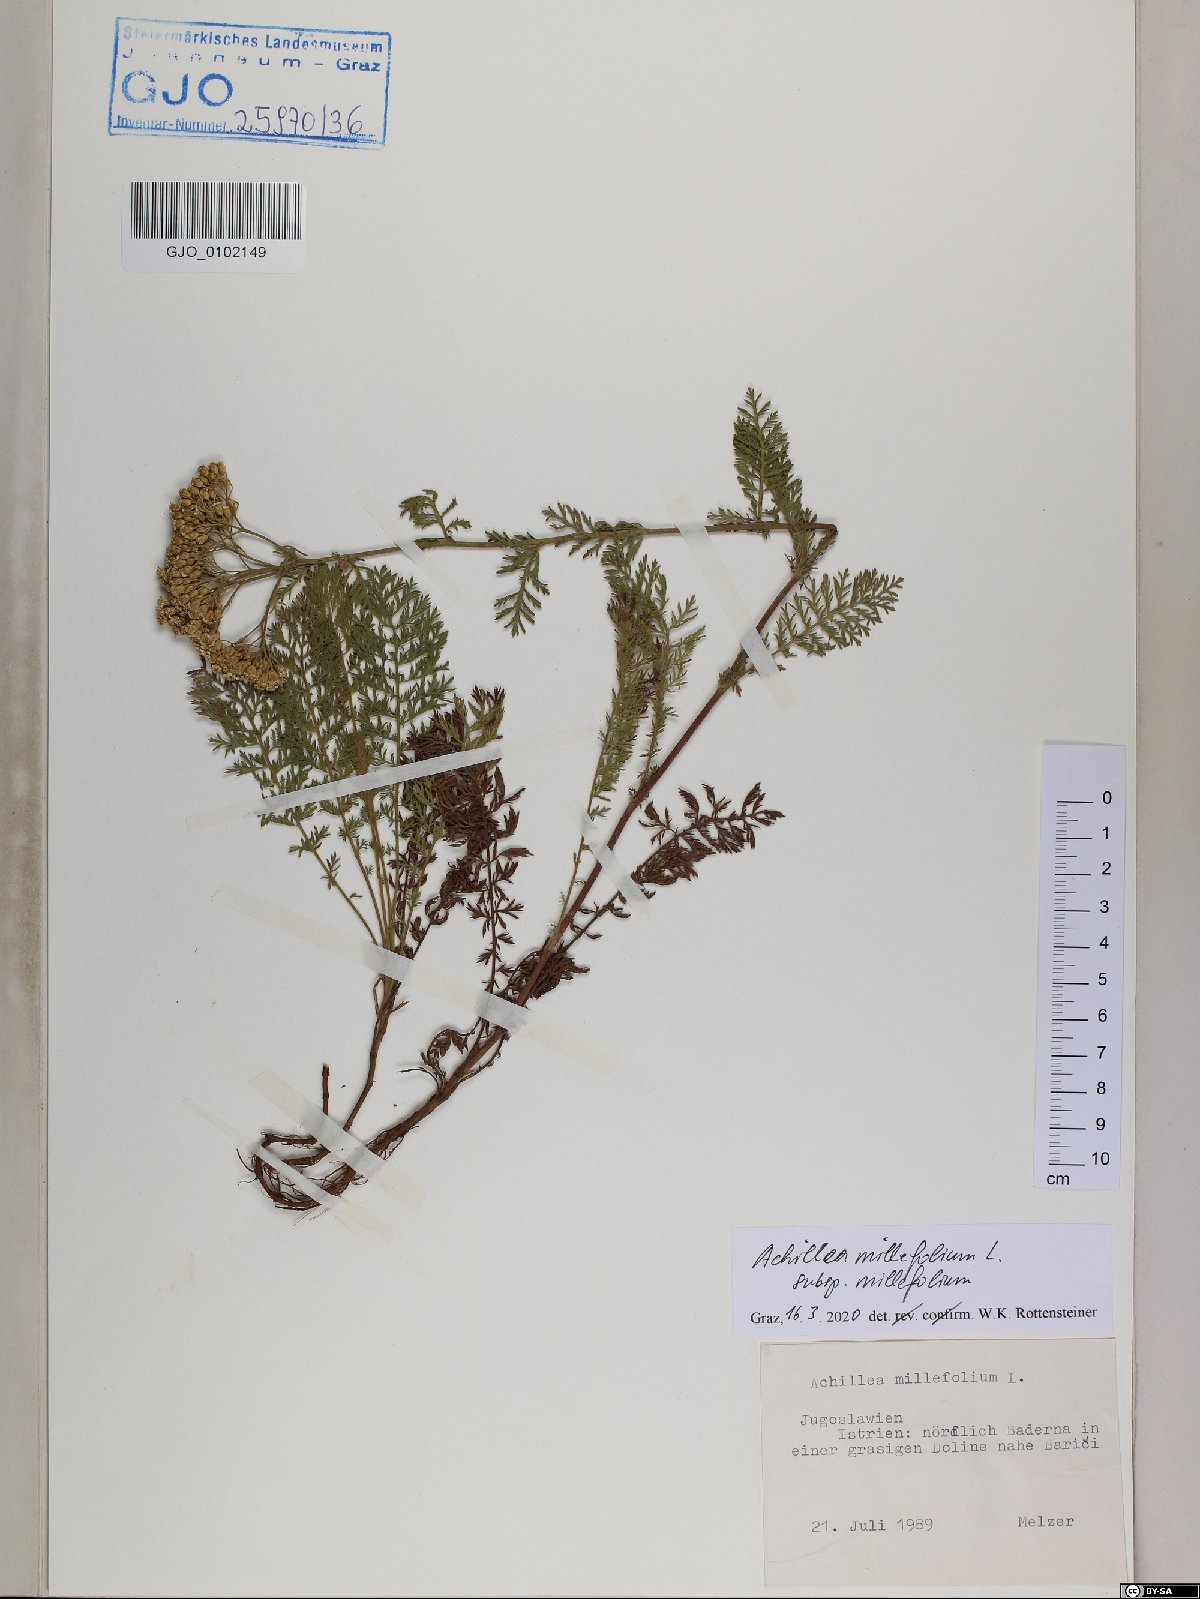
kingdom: Plantae
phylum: Tracheophyta
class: Magnoliopsida
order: Asterales
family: Asteraceae
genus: Achillea
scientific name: Achillea millefolium
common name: Yarrow
